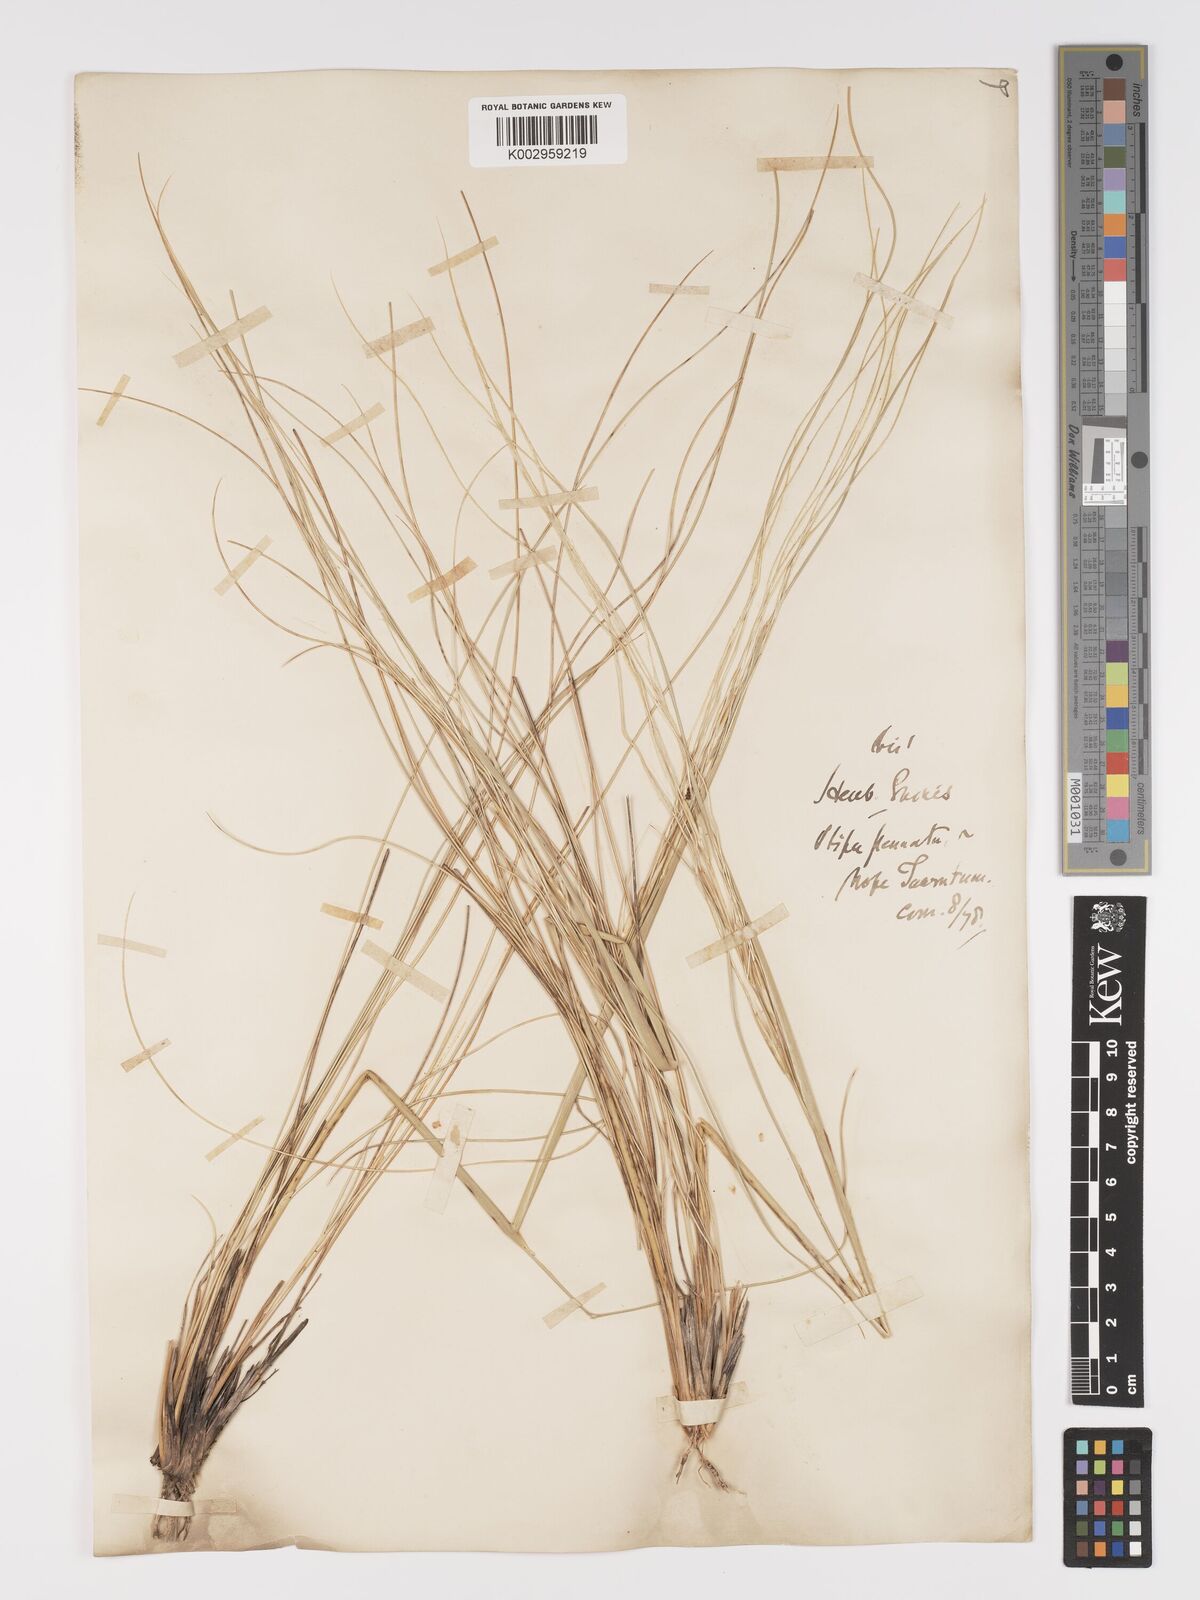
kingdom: Plantae
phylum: Tracheophyta
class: Liliopsida
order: Poales
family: Poaceae
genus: Stipa
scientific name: Stipa pennata
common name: European feather grass
